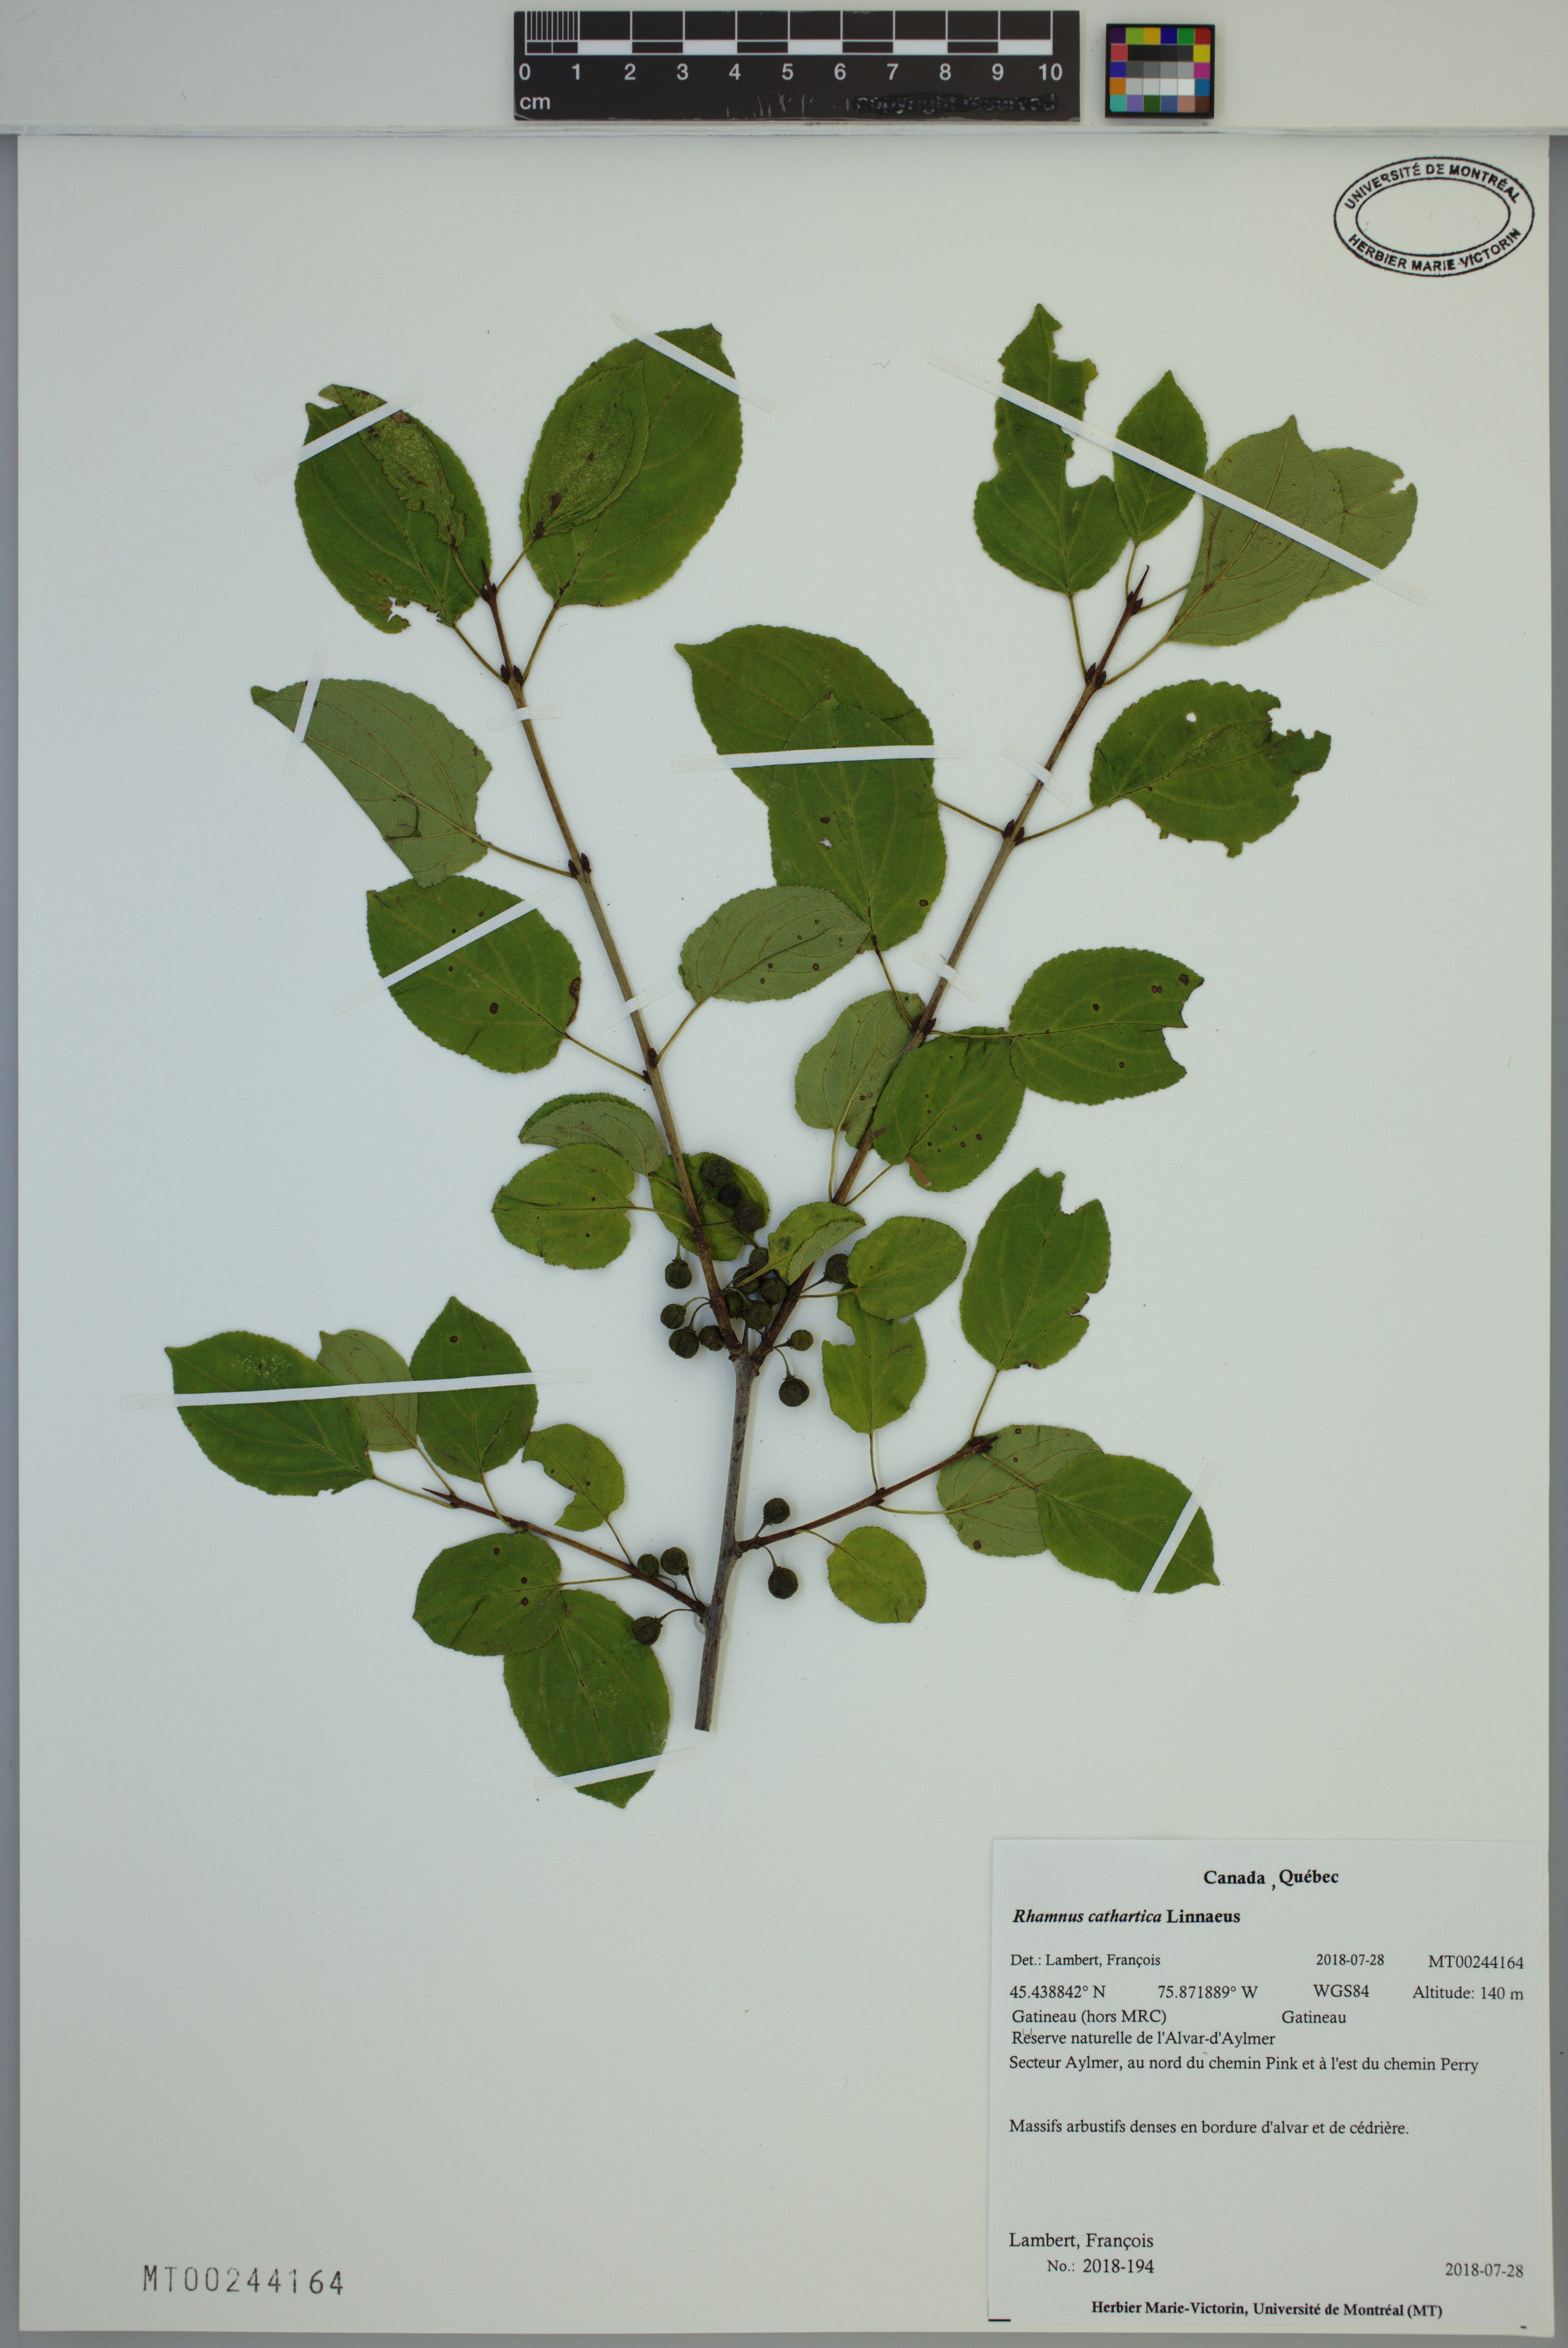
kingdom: Plantae
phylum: Tracheophyta
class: Magnoliopsida
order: Rosales
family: Rhamnaceae
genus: Rhamnus
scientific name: Rhamnus cathartica
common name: Common buckthorn
